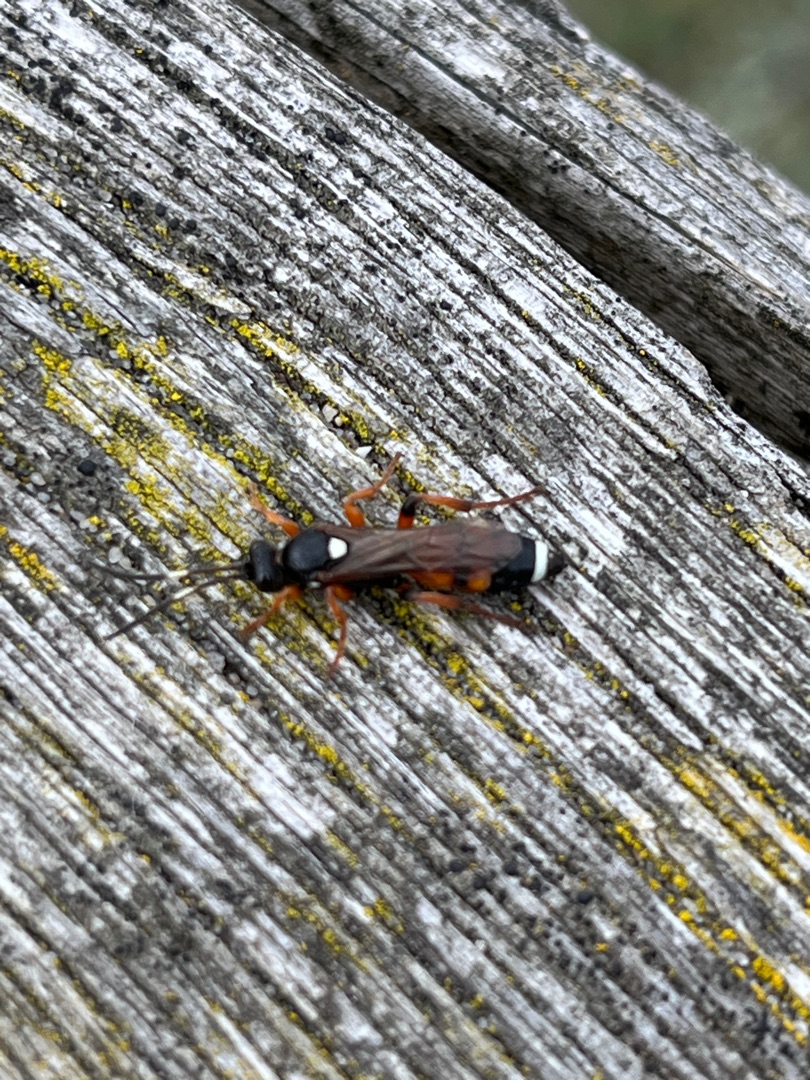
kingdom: Animalia
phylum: Arthropoda
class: Insecta
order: Hymenoptera
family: Ichneumonidae
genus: Ichneumon
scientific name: Ichneumon sarcitorius
